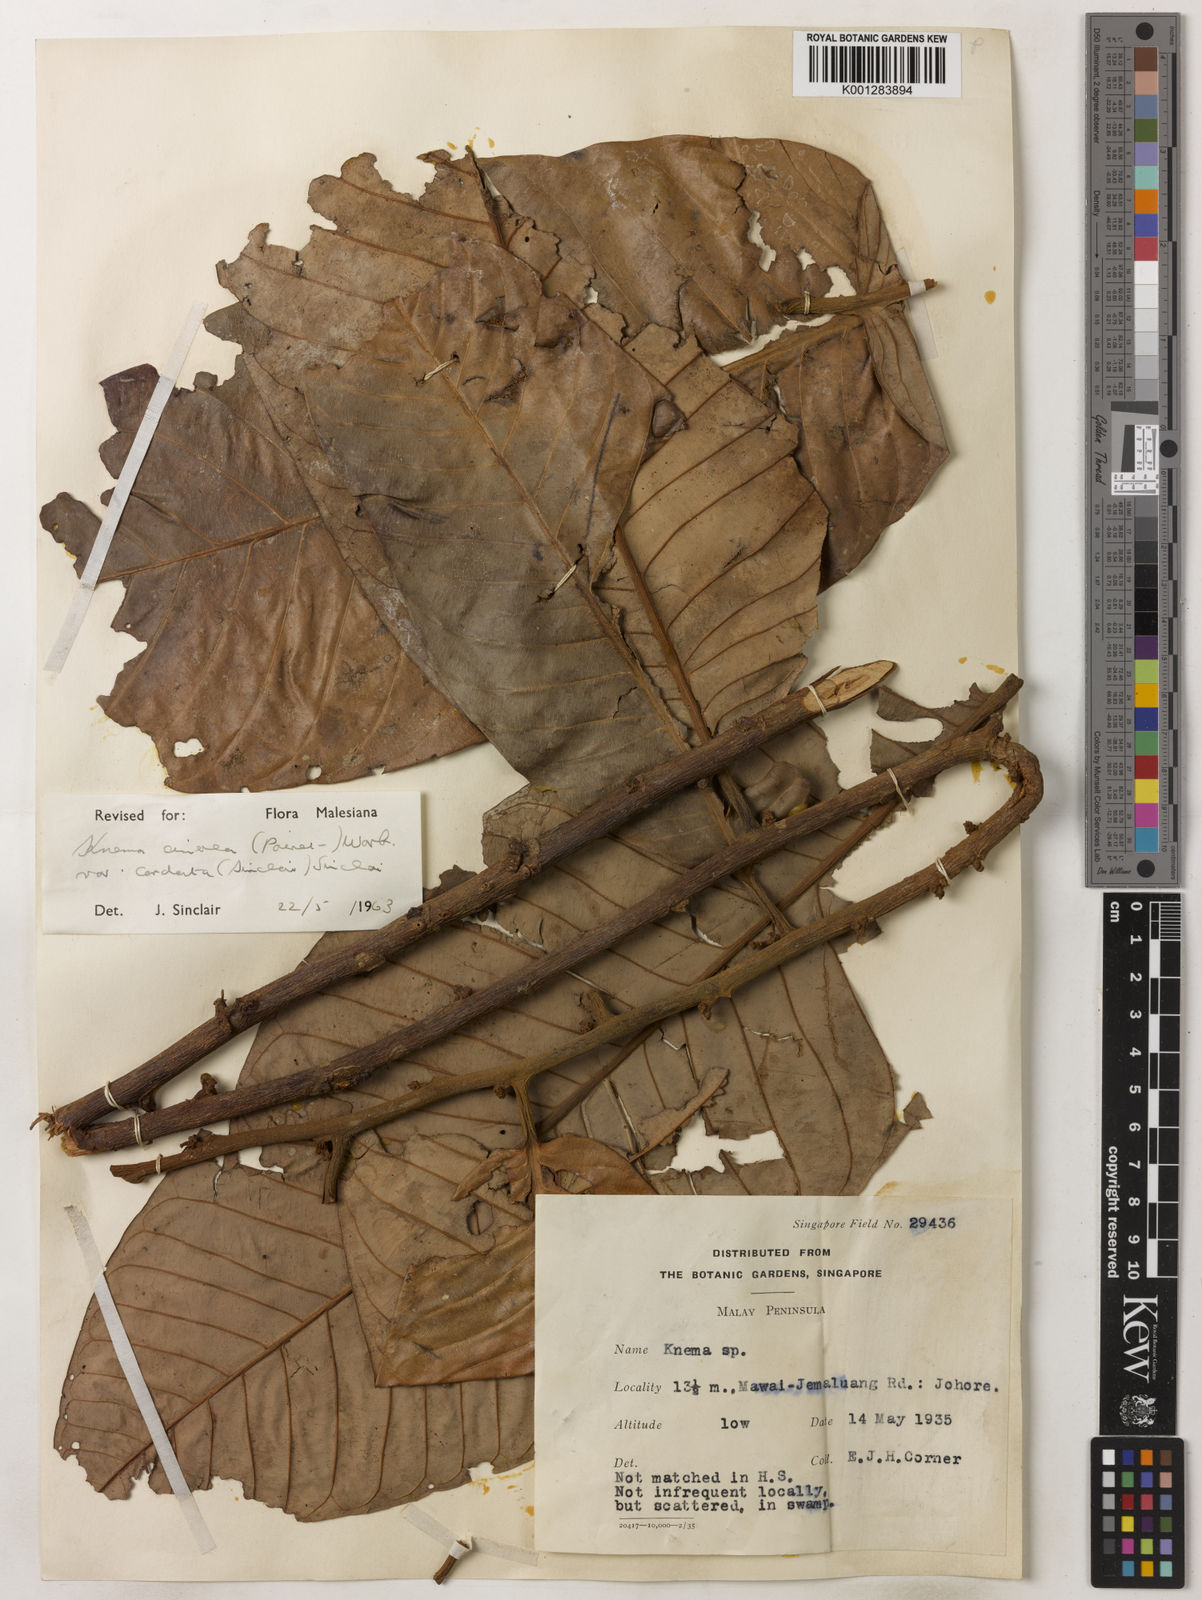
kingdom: Plantae
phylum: Tracheophyta
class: Magnoliopsida
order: Magnoliales
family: Myristicaceae
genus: Knema
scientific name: Knema
